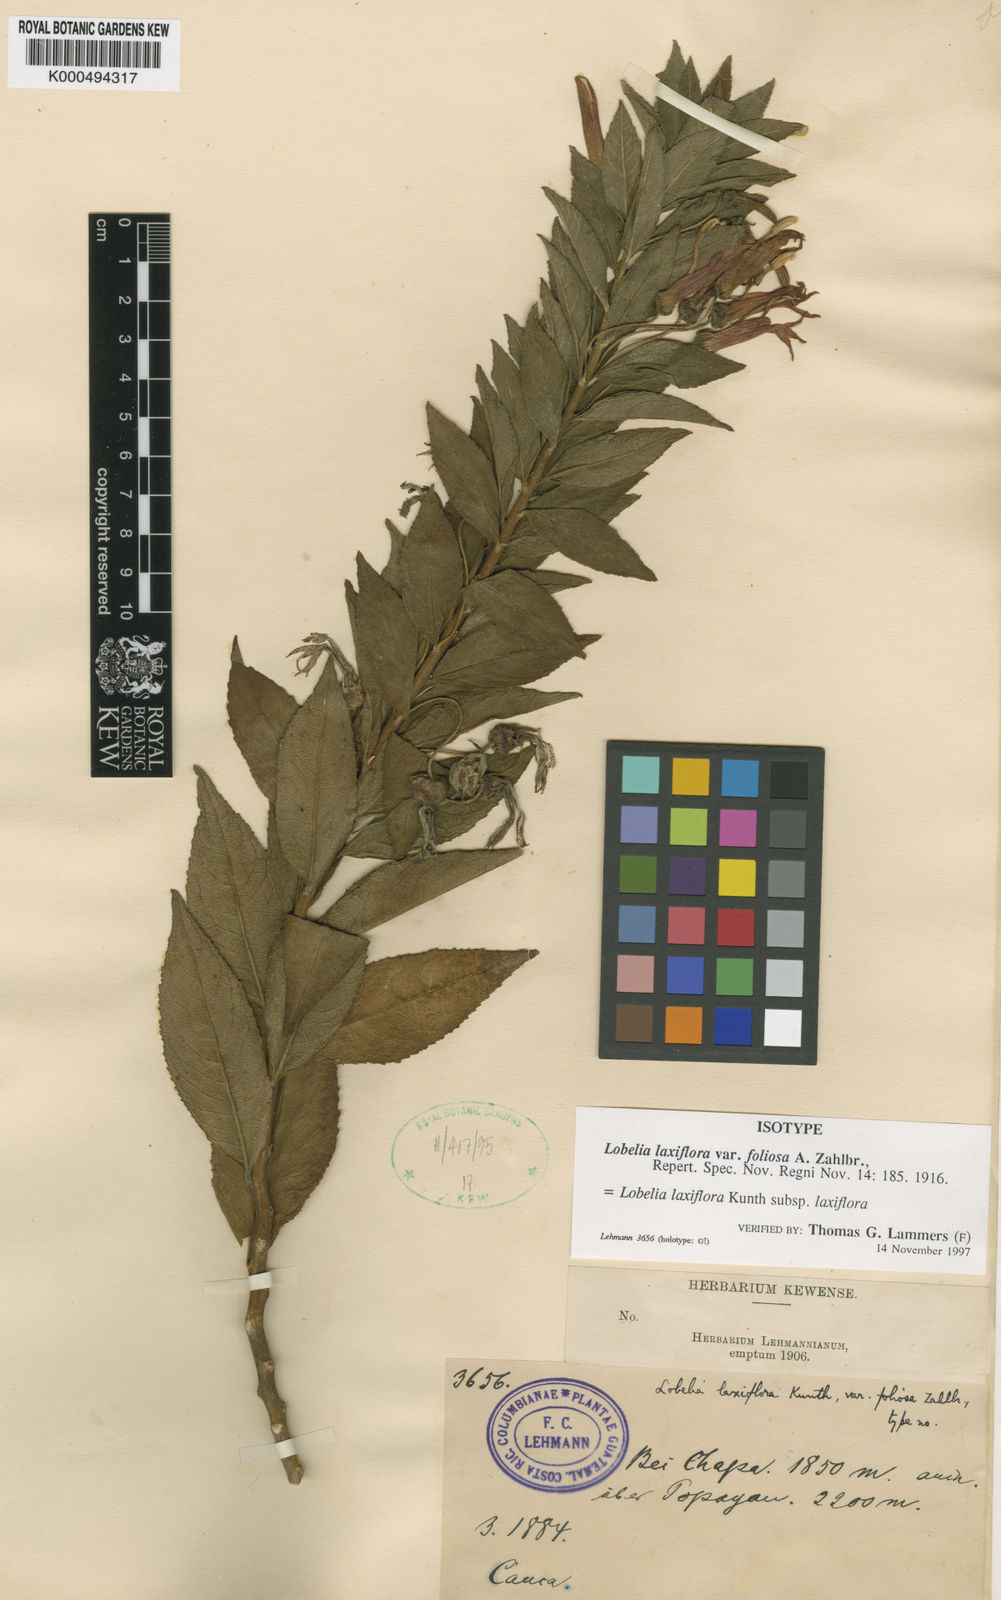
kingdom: Plantae
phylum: Tracheophyta
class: Magnoliopsida
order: Asterales
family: Campanulaceae
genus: Lobelia
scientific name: Lobelia laxiflora
